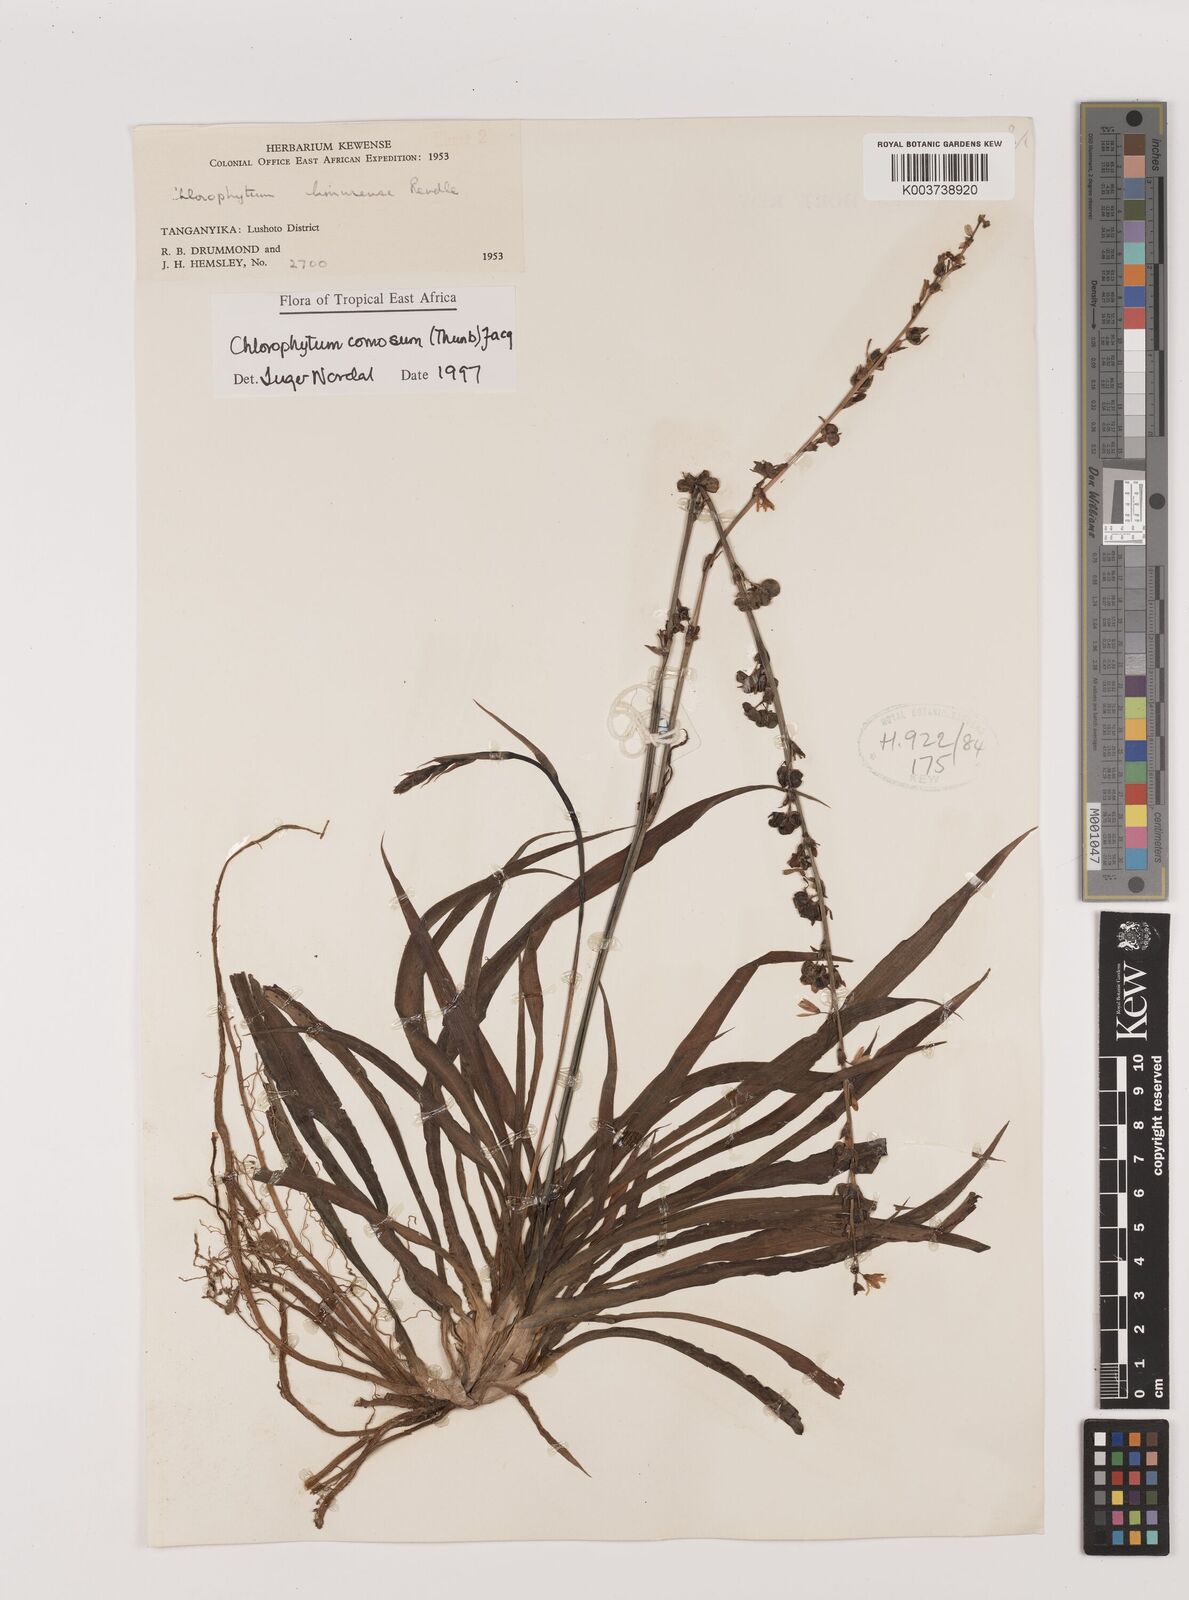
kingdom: Plantae
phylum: Tracheophyta
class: Liliopsida
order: Asparagales
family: Asparagaceae
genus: Chlorophytum
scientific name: Chlorophytum comosum
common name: Spider plant
